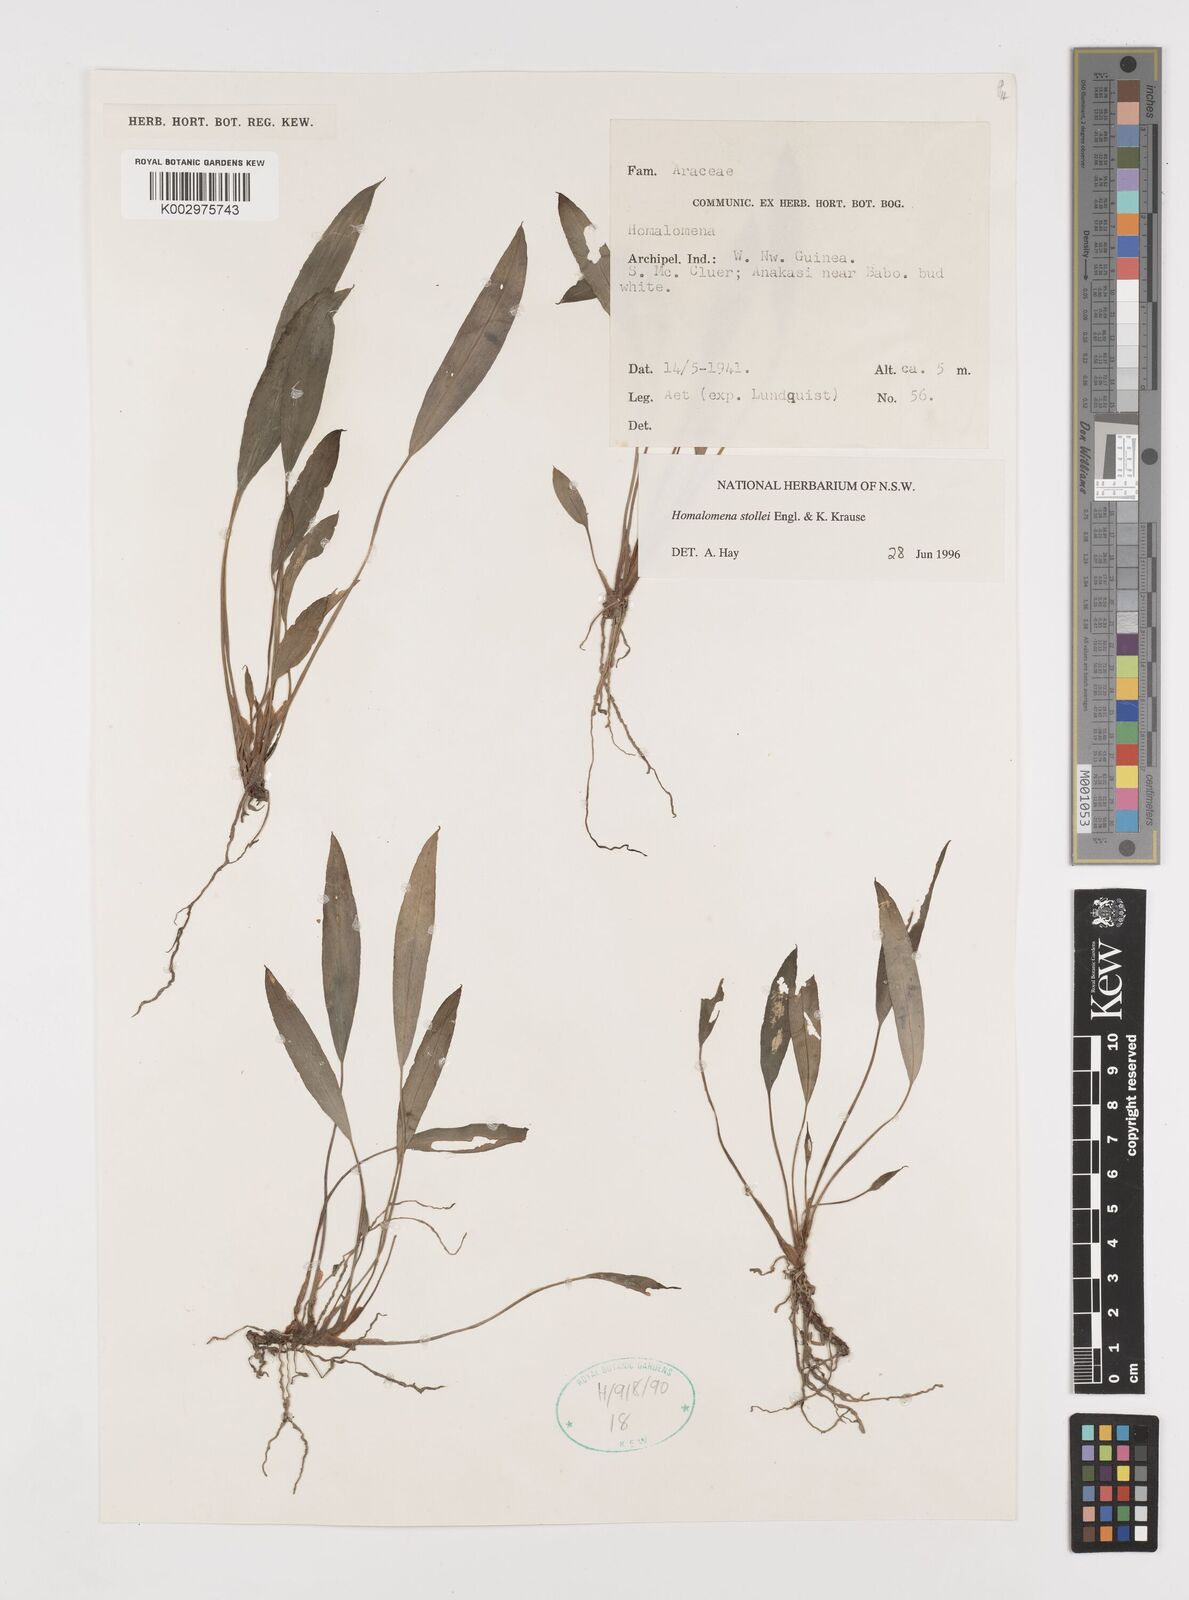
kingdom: Plantae
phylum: Tracheophyta
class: Liliopsida
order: Alismatales
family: Araceae
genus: Homalomena
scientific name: Homalomena stollei
